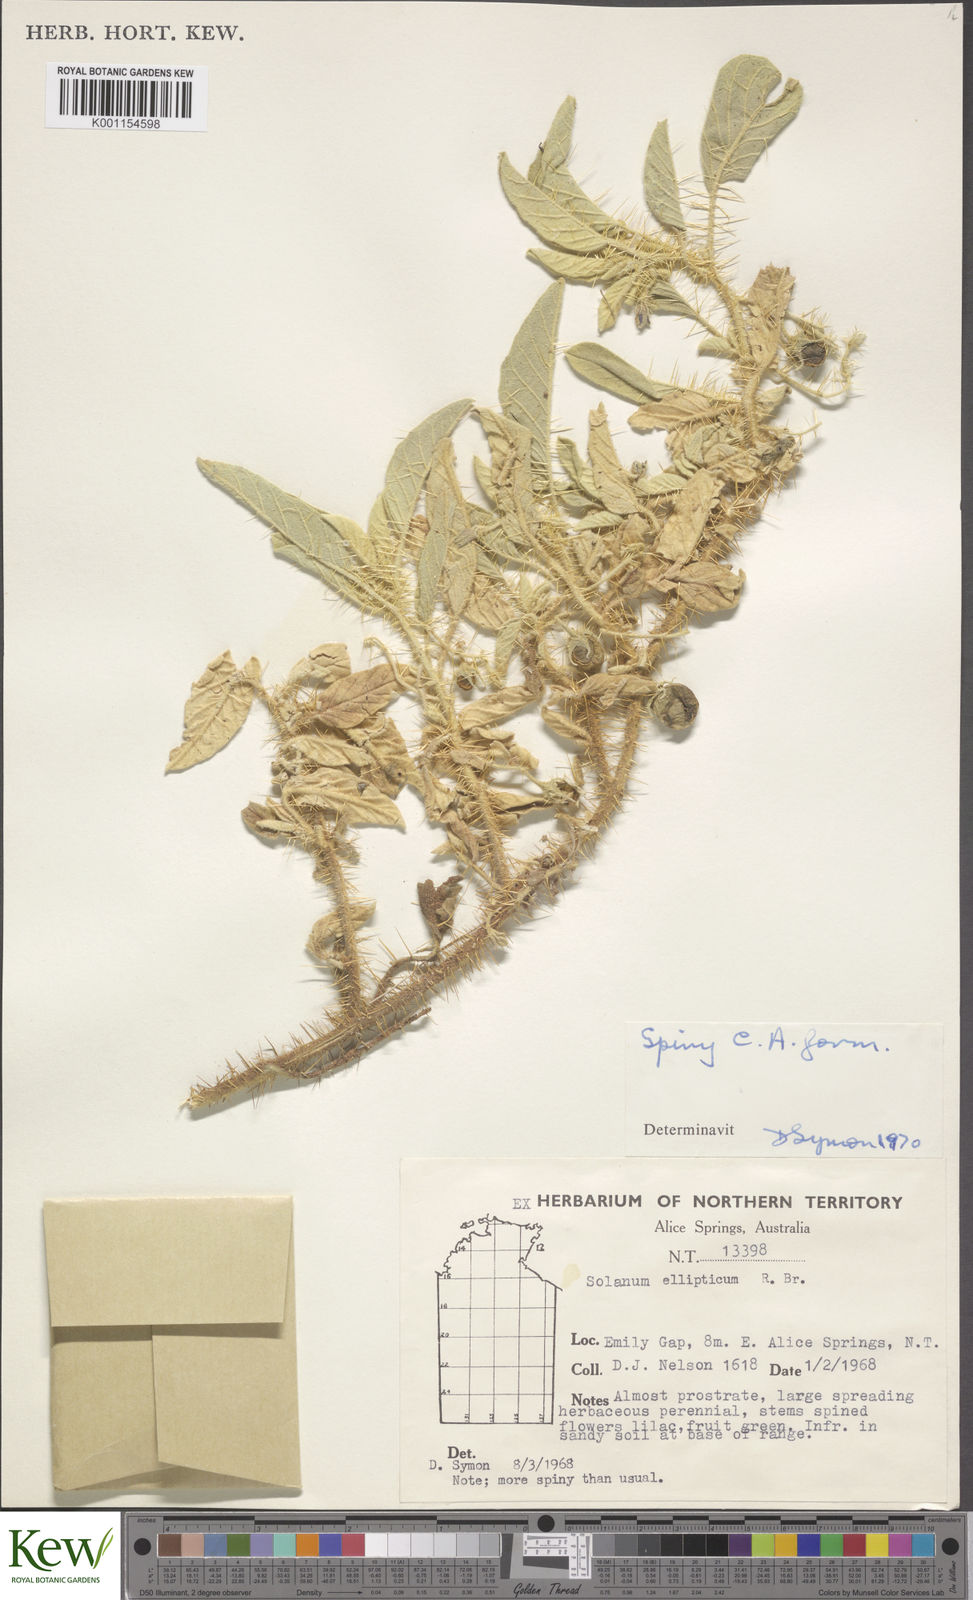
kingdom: Plantae
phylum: Tracheophyta
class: Magnoliopsida
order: Solanales
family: Solanaceae
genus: Solanum
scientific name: Solanum ellipticum
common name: Potato-bush
